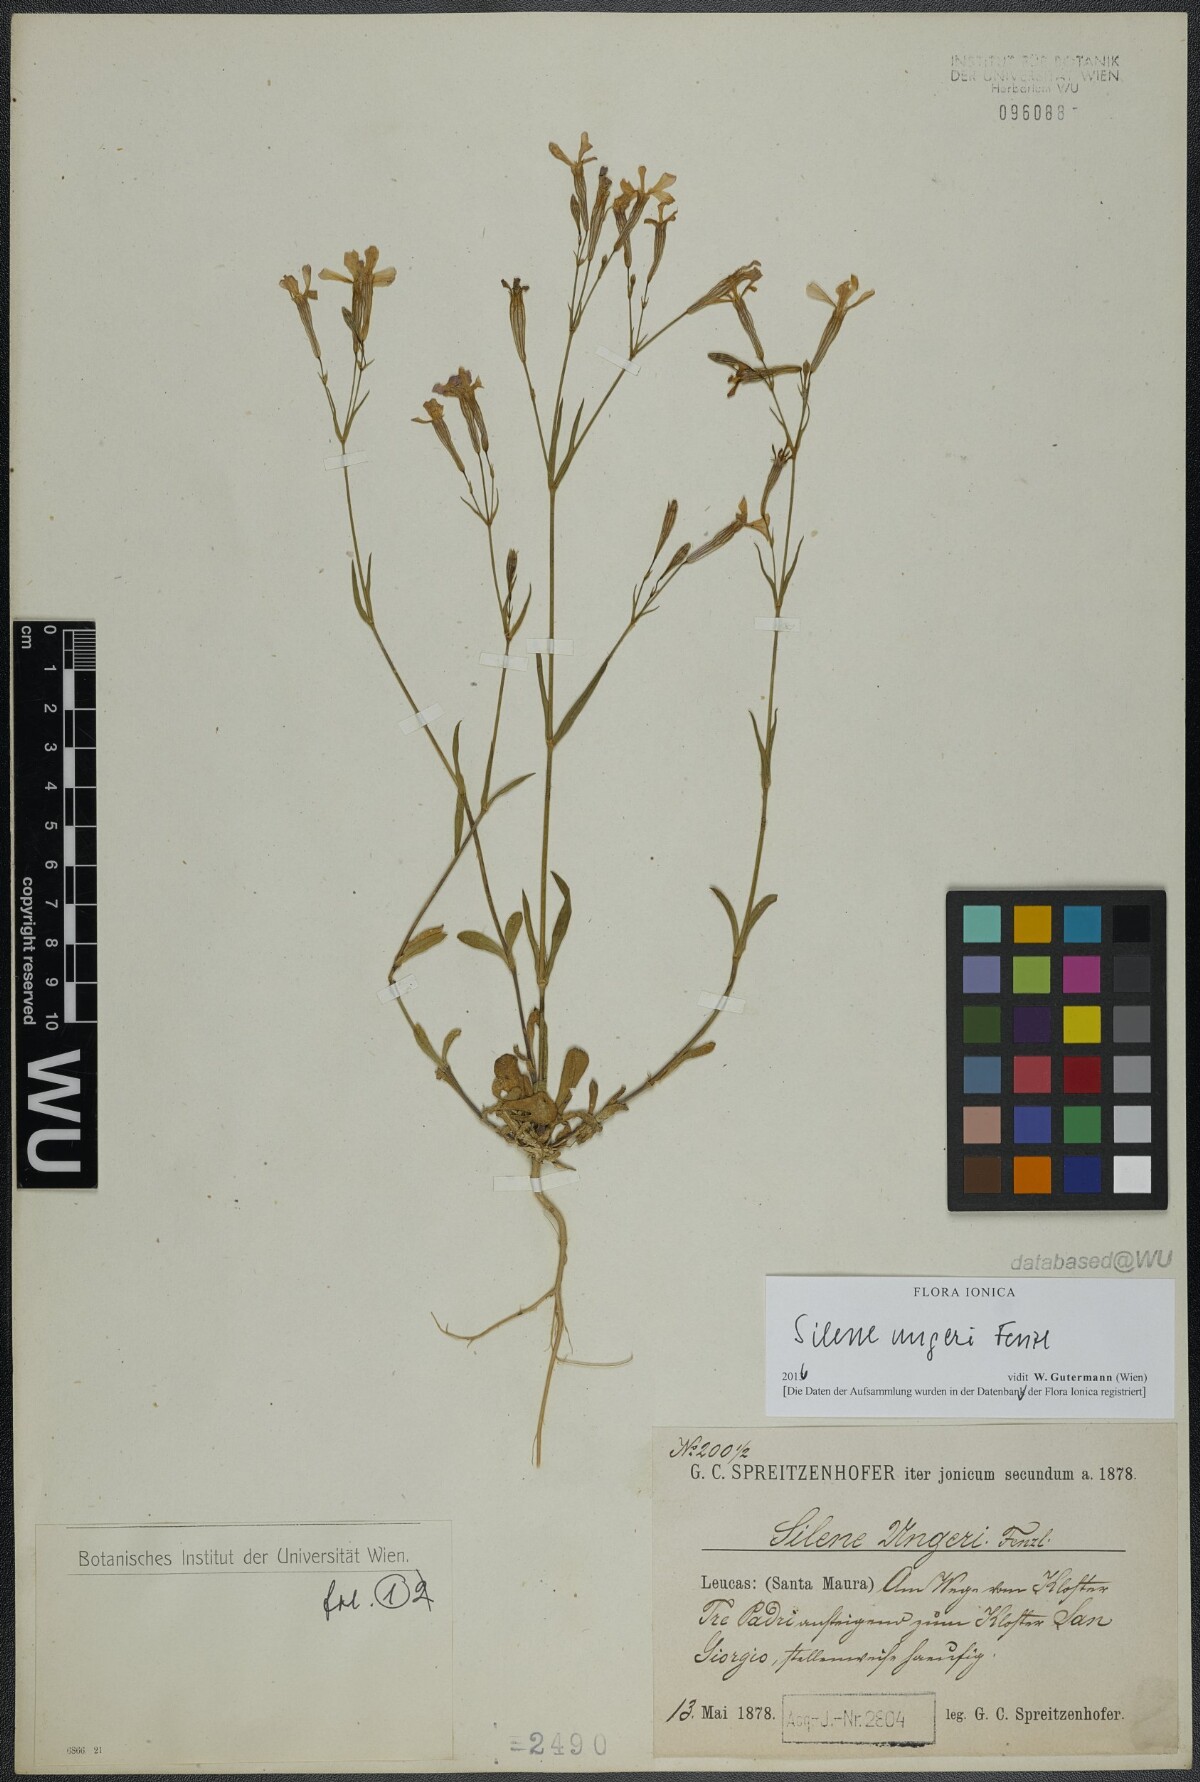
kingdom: Plantae
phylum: Tracheophyta
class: Magnoliopsida
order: Caryophyllales
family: Caryophyllaceae
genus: Silene
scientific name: Silene ungeri
